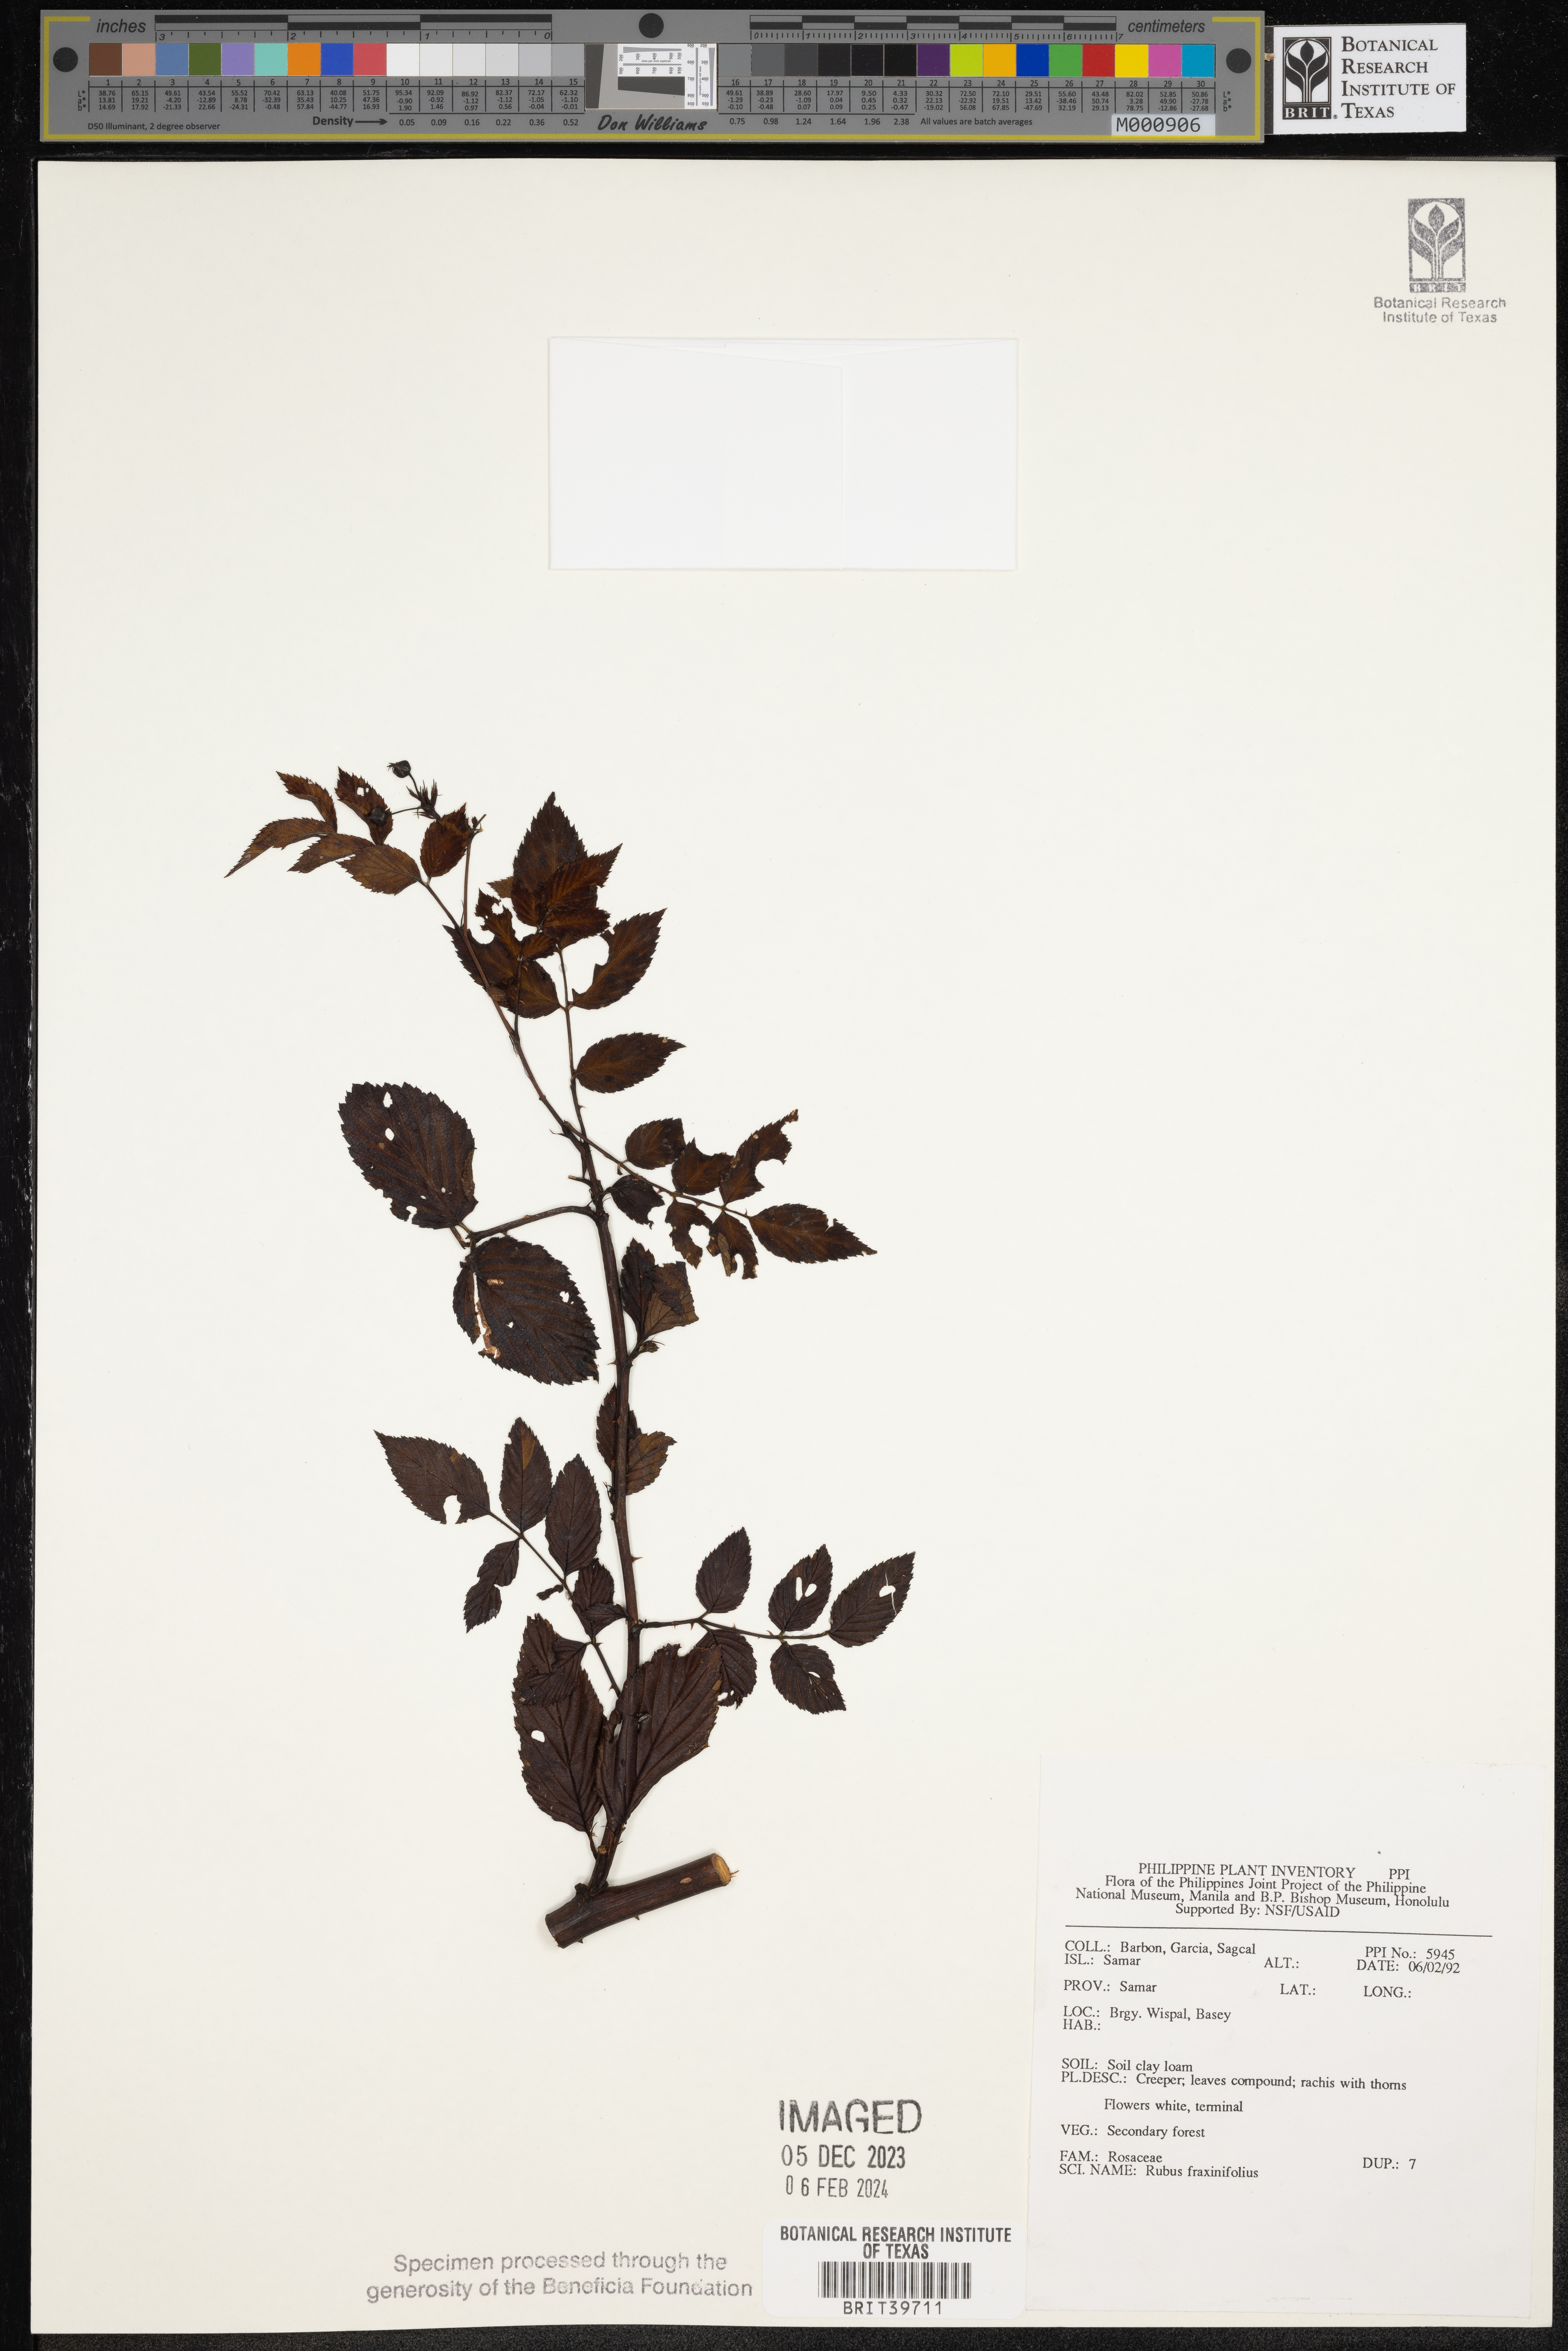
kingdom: Plantae
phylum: Tracheophyta
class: Magnoliopsida
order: Rosales
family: Rosaceae
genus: Rubus
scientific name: Rubus fraxinifolius
